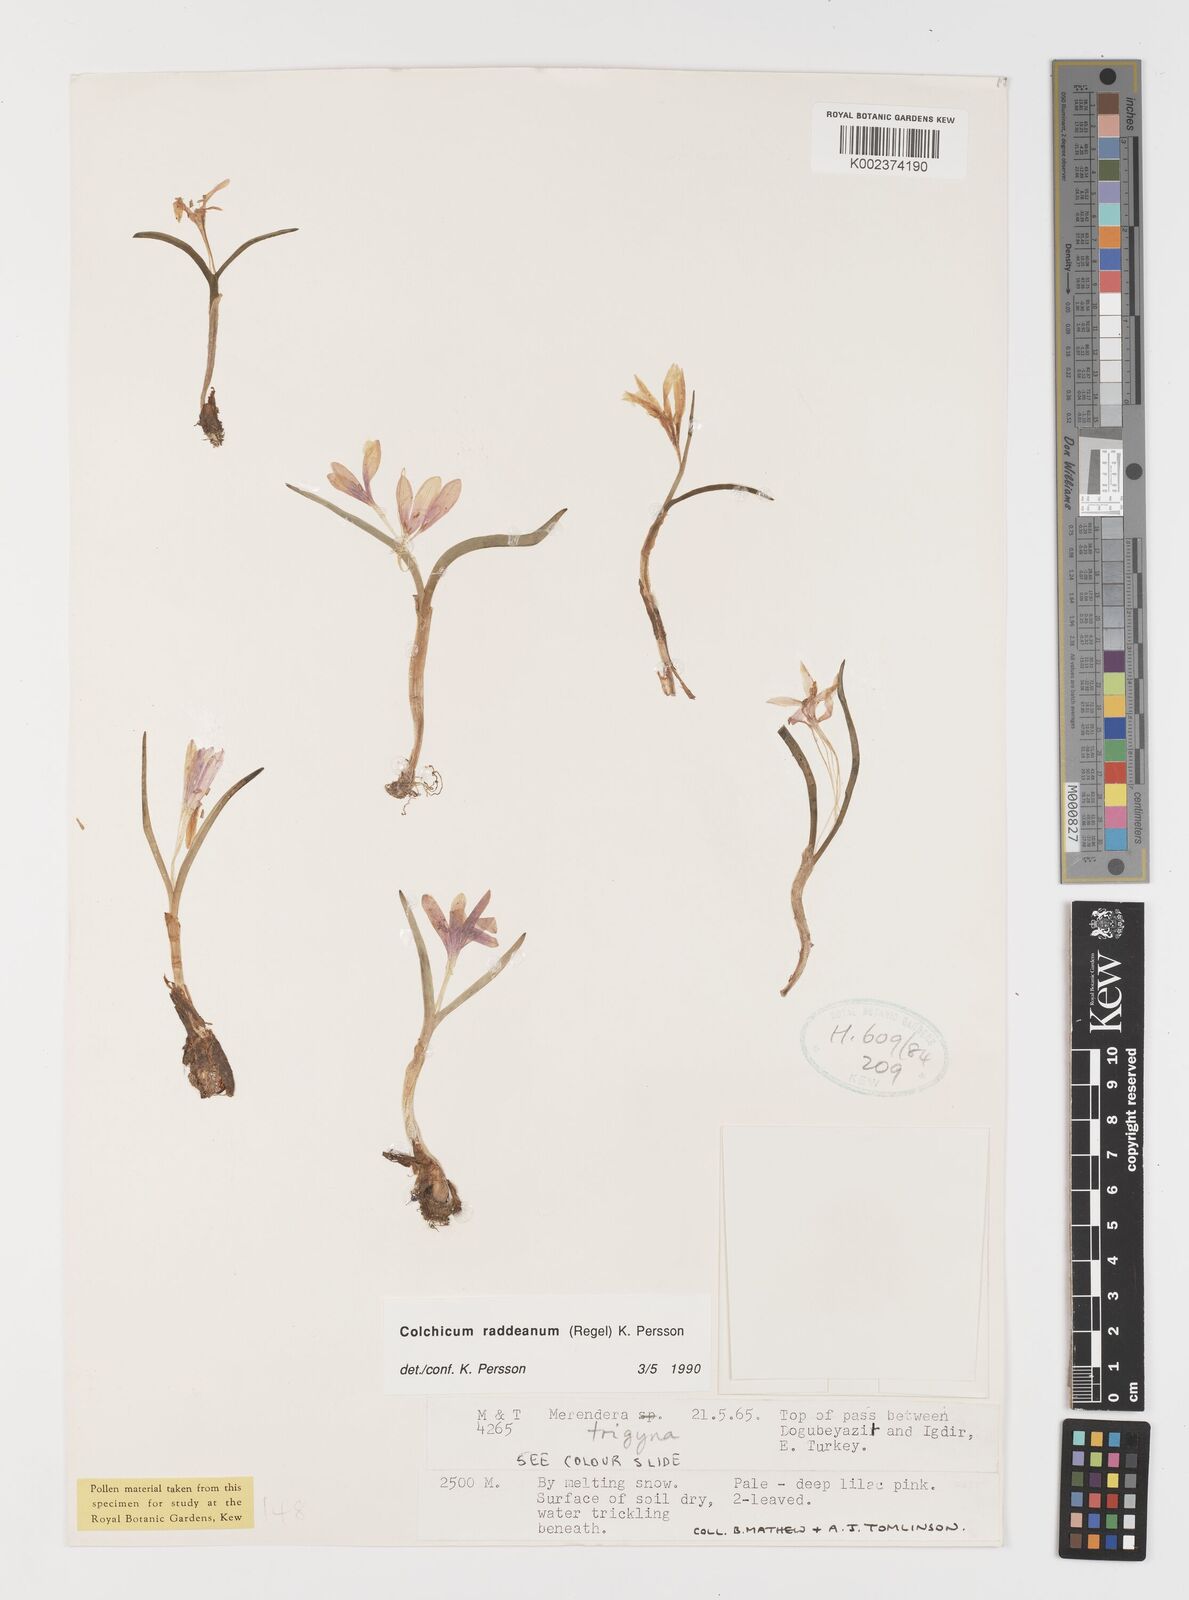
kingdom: Plantae
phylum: Tracheophyta
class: Liliopsida
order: Liliales
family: Colchicaceae
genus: Colchicum
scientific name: Colchicum raddeanum
